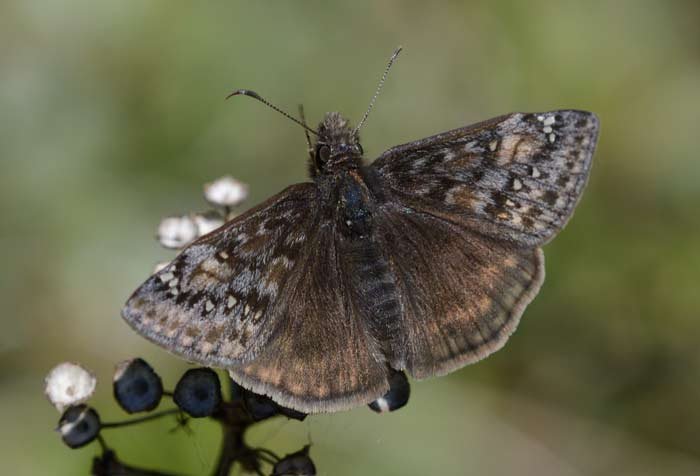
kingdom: Animalia
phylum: Arthropoda
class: Insecta
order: Lepidoptera
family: Hesperiidae
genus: Gesta
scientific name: Gesta
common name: Juvenal's Duskywing
